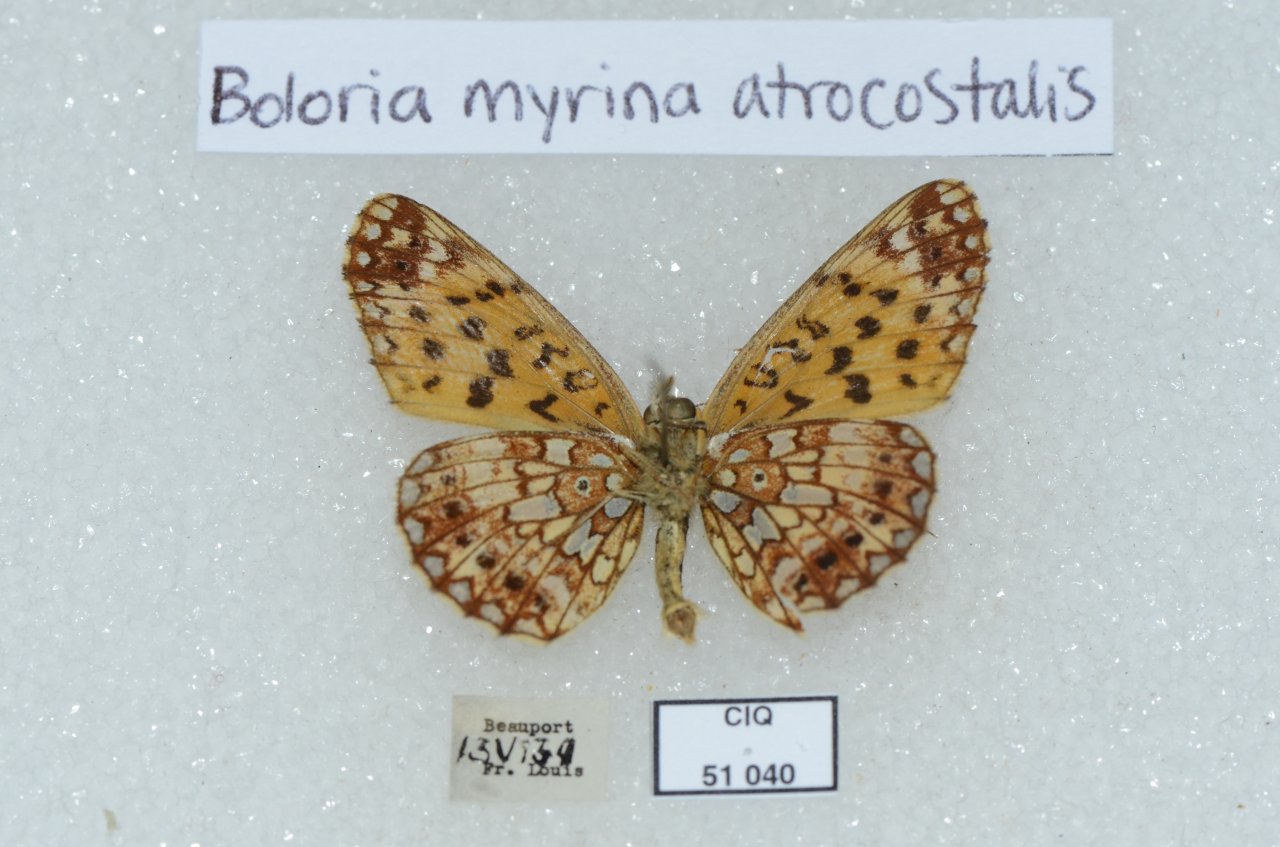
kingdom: Animalia
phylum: Arthropoda
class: Insecta
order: Lepidoptera
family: Nymphalidae
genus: Boloria
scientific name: Boloria selene
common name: Silver-bordered Fritillary
